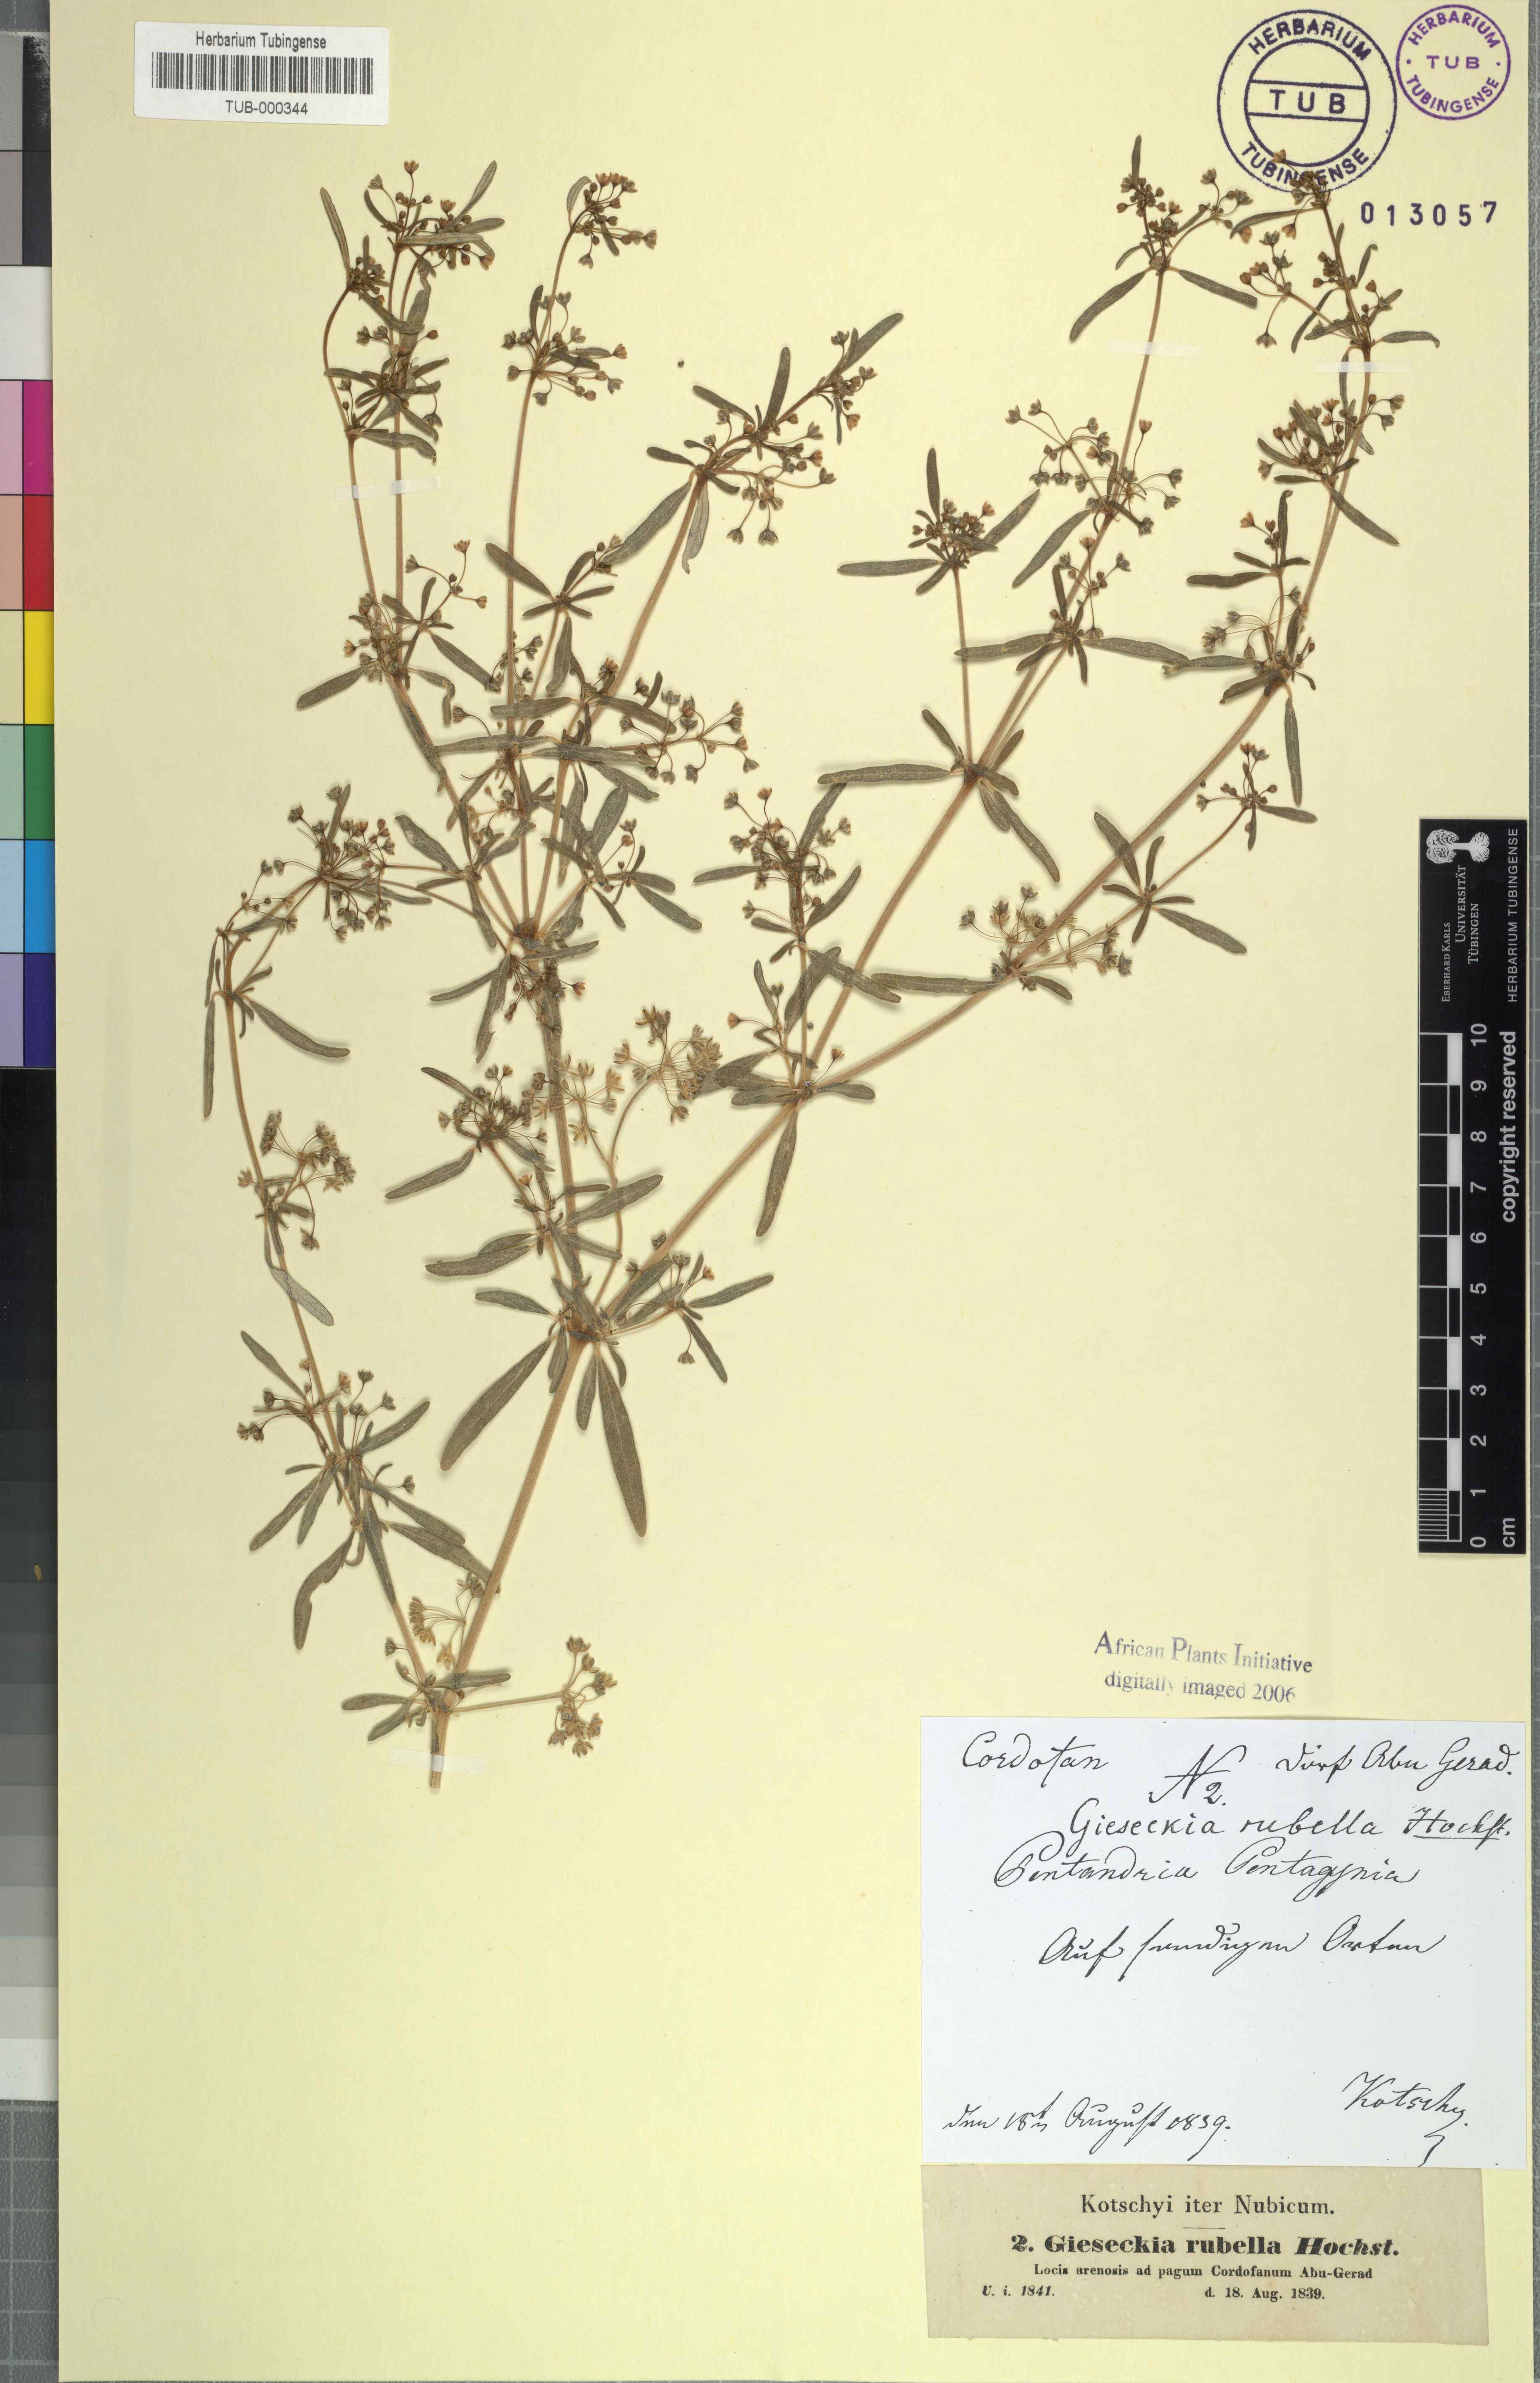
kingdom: Plantae
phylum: Tracheophyta
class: Magnoliopsida
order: Caryophyllales
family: Gisekiaceae
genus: Gisekia
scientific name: Gisekia pharnaceoides
